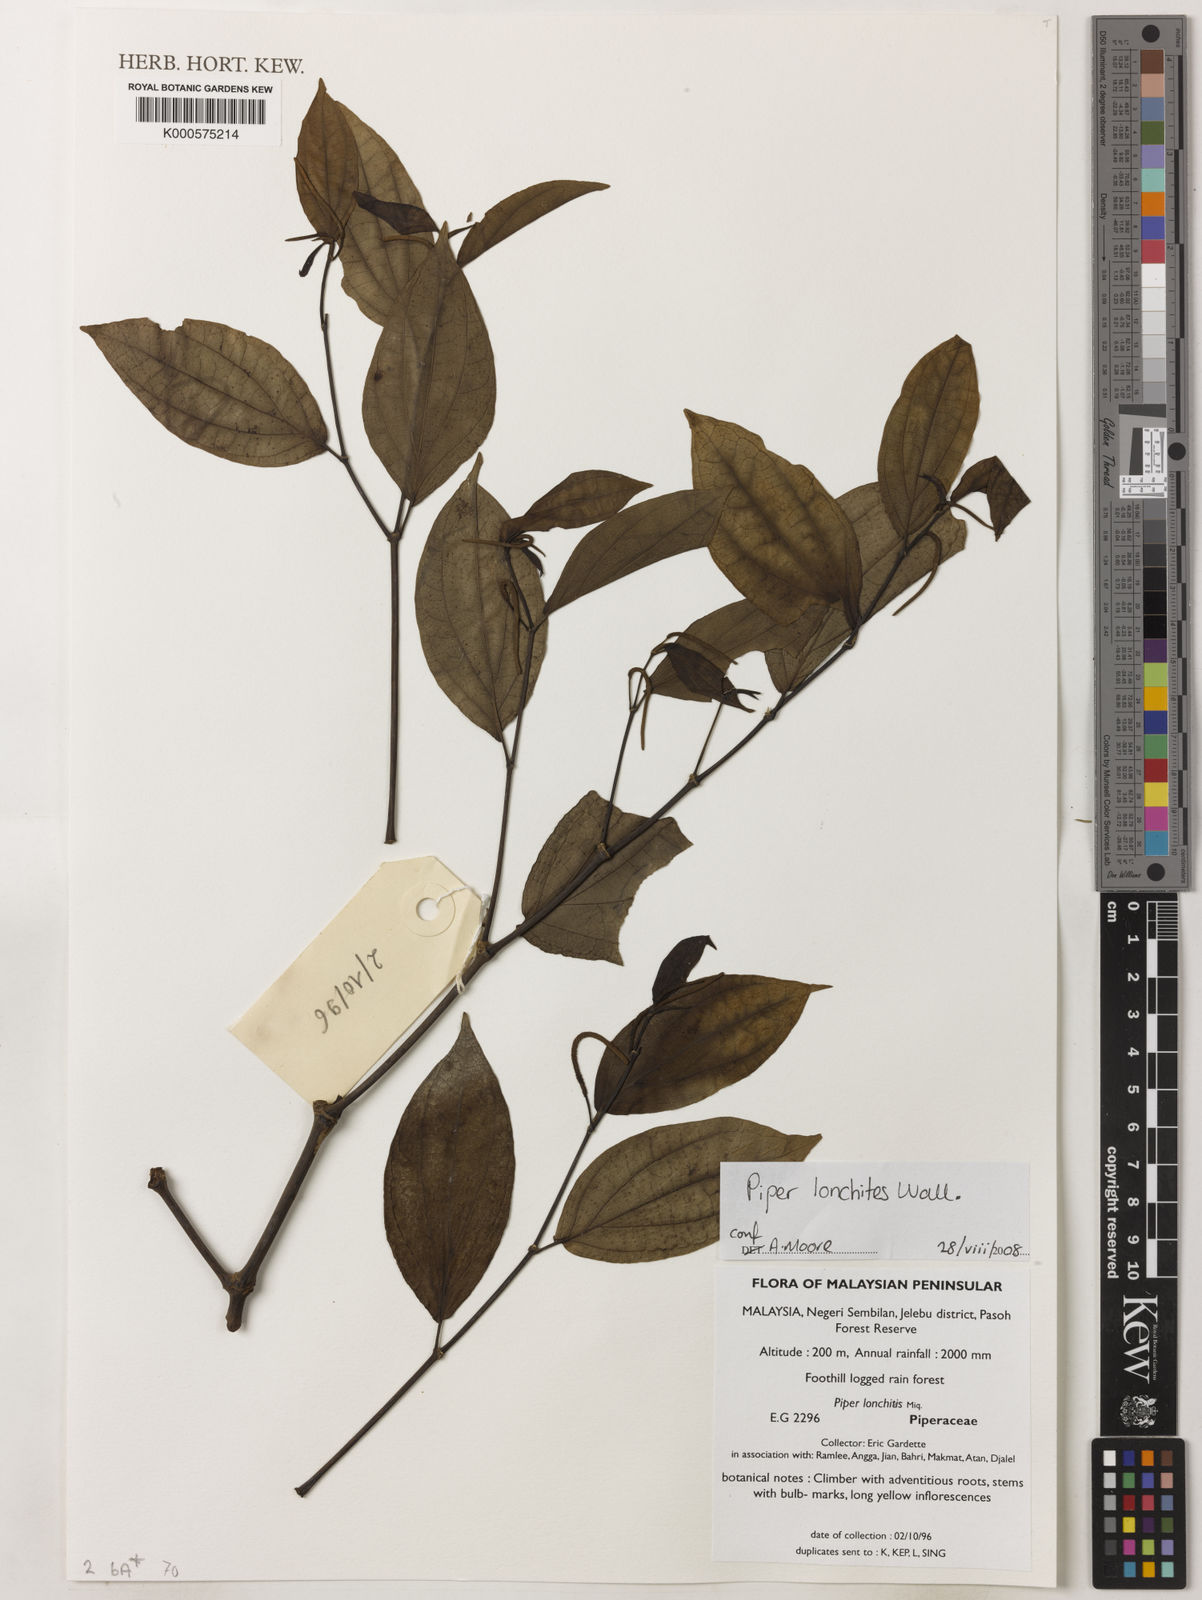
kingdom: Plantae
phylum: Tracheophyta
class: Magnoliopsida
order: Piperales
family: Piperaceae
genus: Piper
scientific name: Piper
